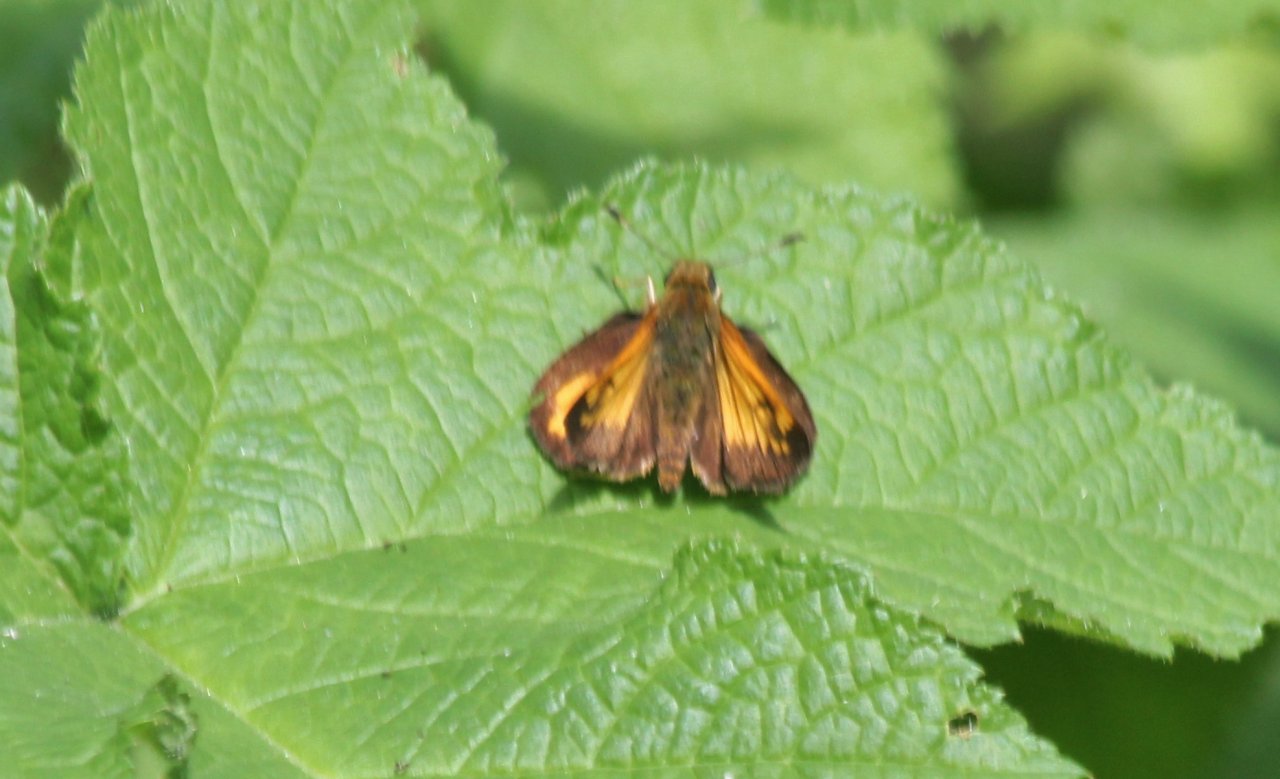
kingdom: Animalia
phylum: Arthropoda
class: Insecta
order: Lepidoptera
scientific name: Lepidoptera
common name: Butterflies
